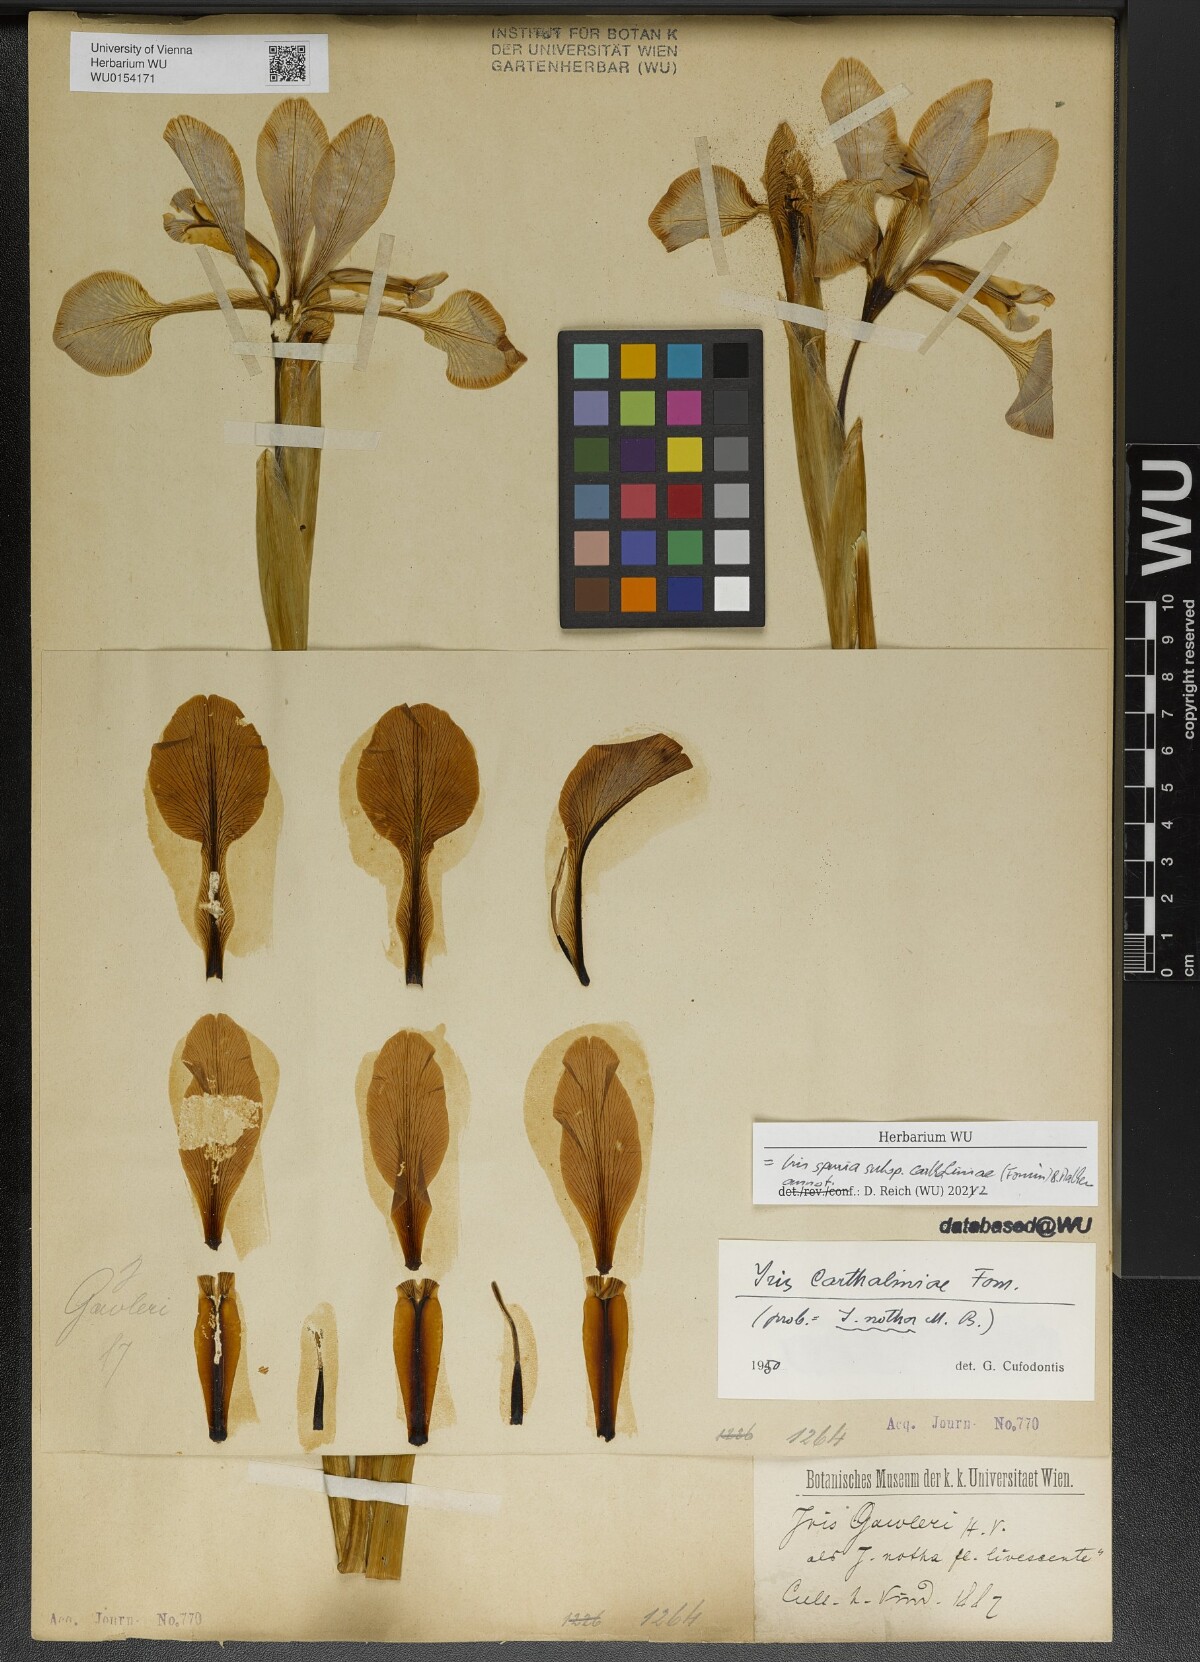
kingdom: Plantae
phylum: Tracheophyta
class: Liliopsida
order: Asparagales
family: Iridaceae
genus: Iris
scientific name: Iris spuria
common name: Blue iris
